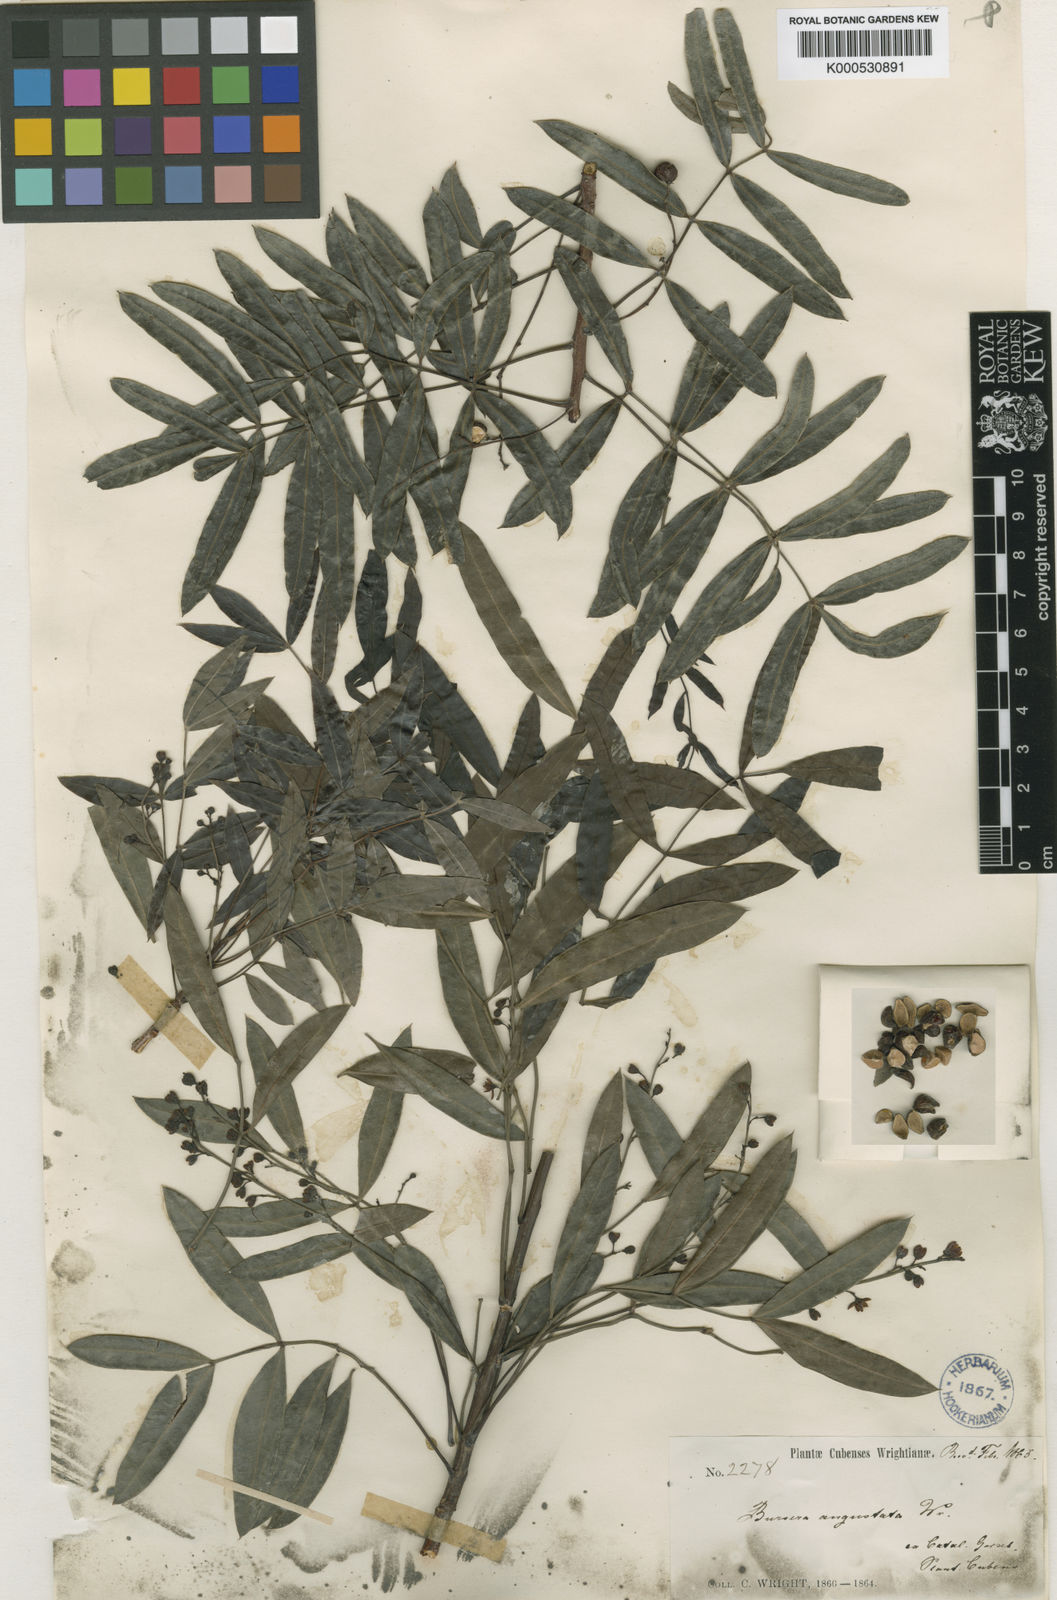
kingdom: Plantae
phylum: Tracheophyta
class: Magnoliopsida
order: Sapindales
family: Burseraceae
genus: Bursera
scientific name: Bursera
